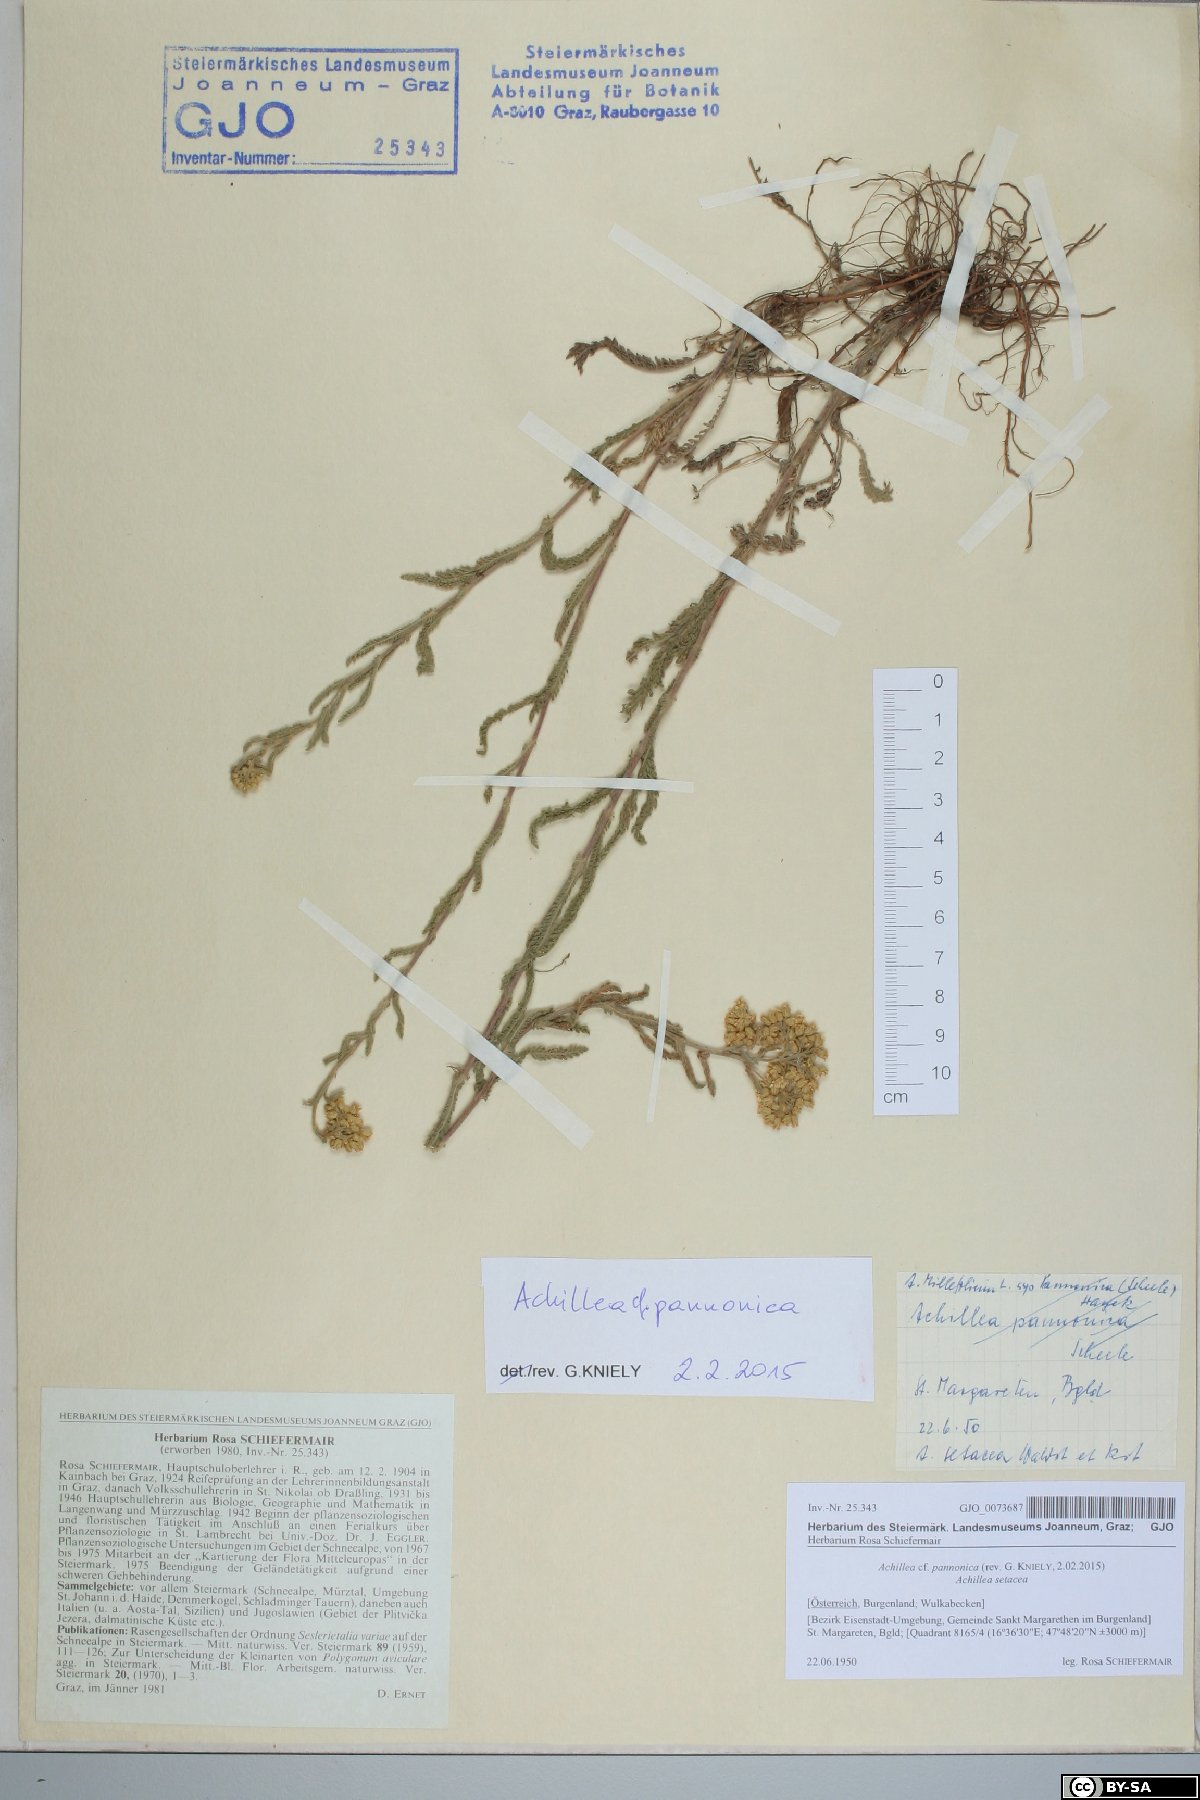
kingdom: Plantae
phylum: Tracheophyta
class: Magnoliopsida
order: Asterales
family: Asteraceae
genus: Achillea
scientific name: Achillea pannonica
